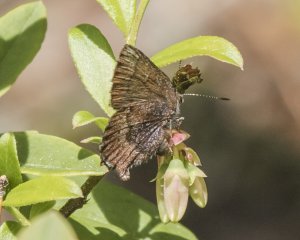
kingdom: Animalia
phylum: Arthropoda
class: Insecta
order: Lepidoptera
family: Lycaenidae
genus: Incisalia
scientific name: Incisalia irioides
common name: Brown Elfin
